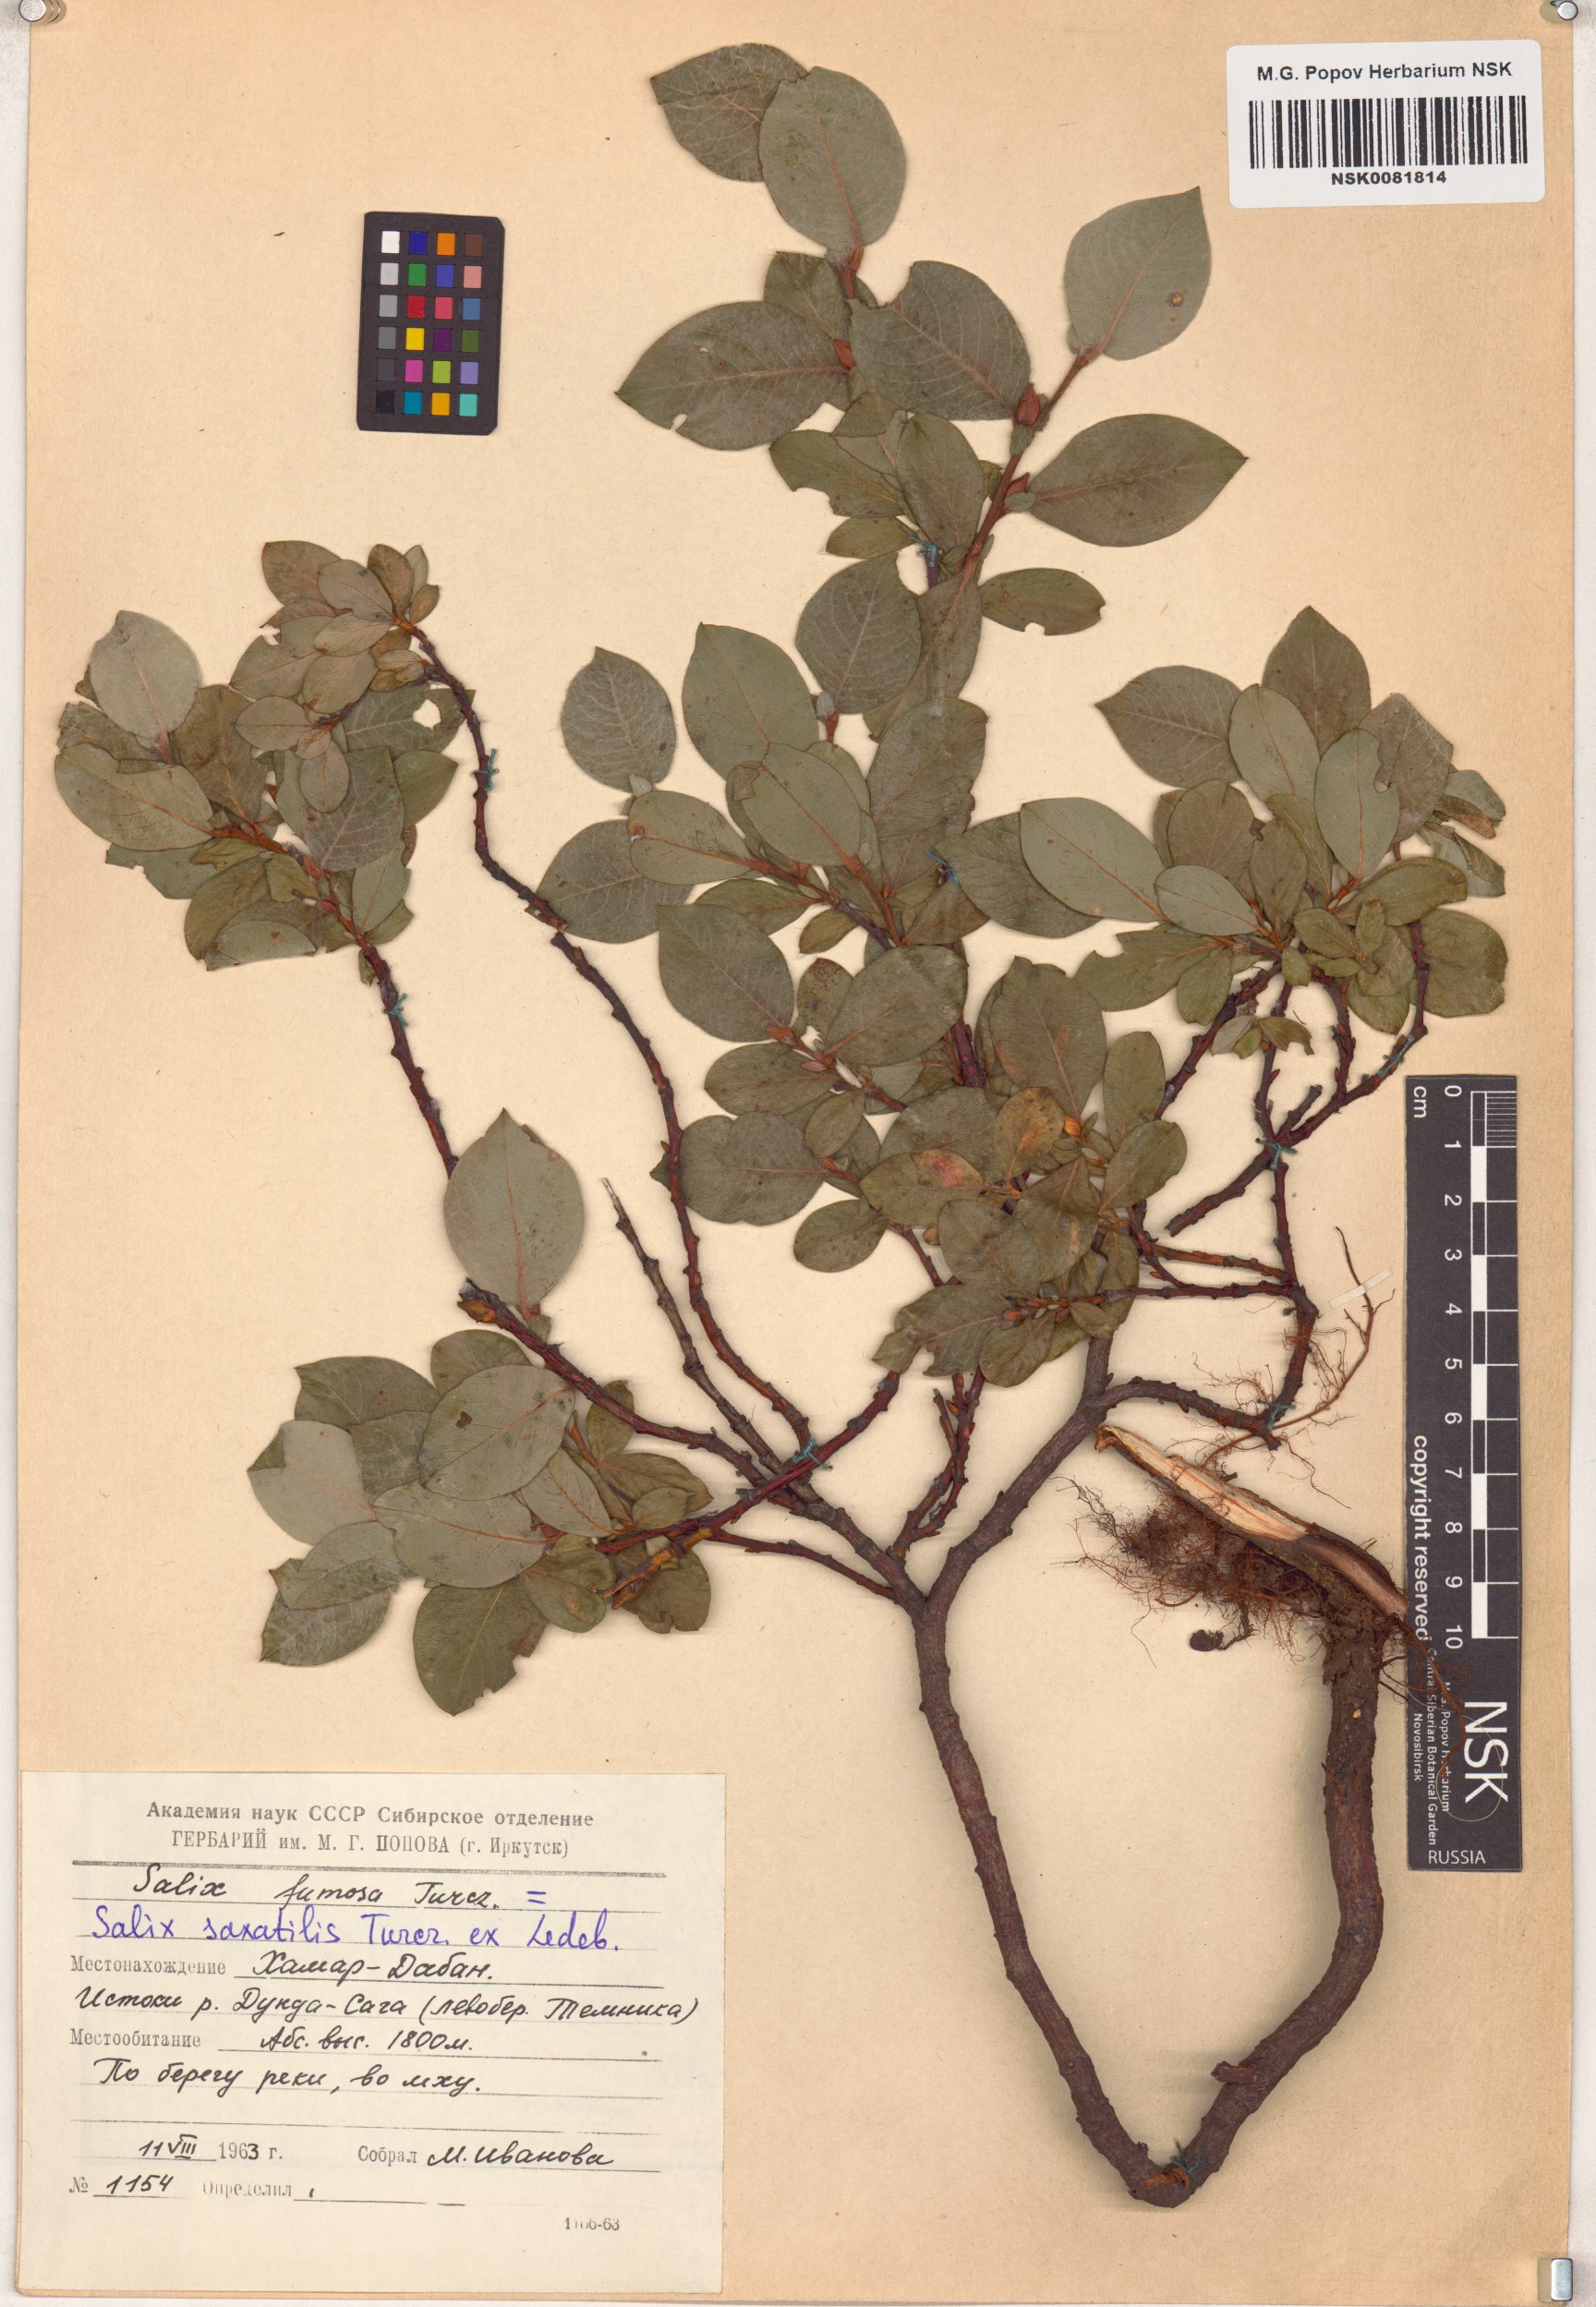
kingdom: Plantae
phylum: Tracheophyta
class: Magnoliopsida
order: Malpighiales
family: Salicaceae
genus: Salix
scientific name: Salix saxatilis
